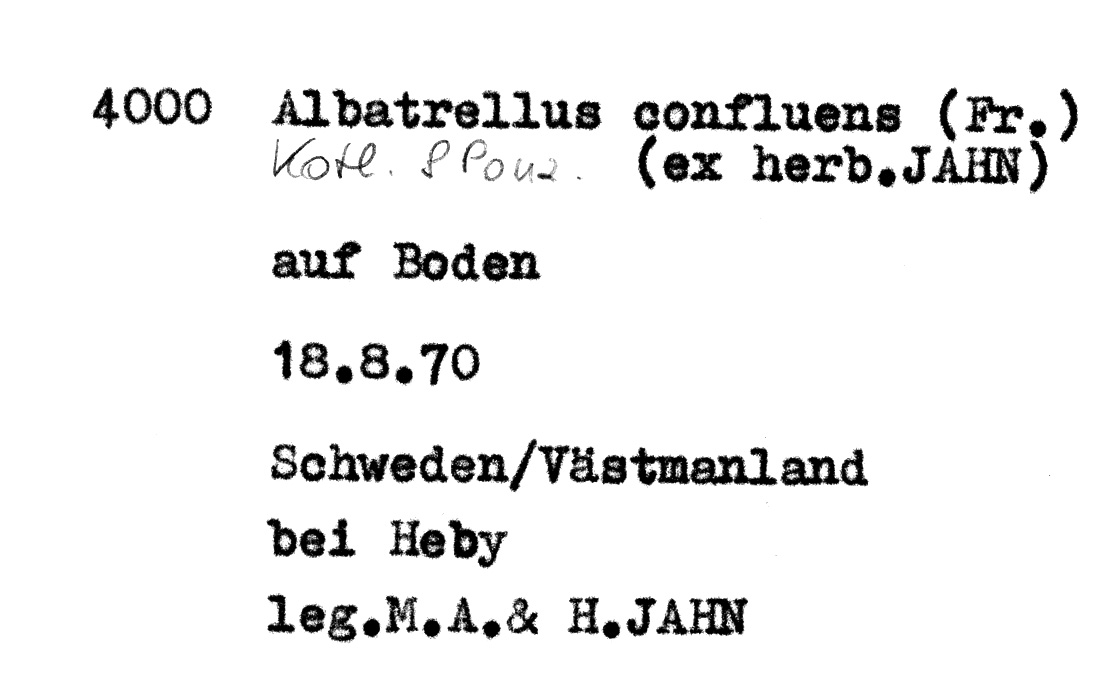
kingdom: Fungi
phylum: Basidiomycota
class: Agaricomycetes
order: Russulales
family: Albatrellaceae
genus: Albatrellopsis
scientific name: Albatrellopsis confluens
